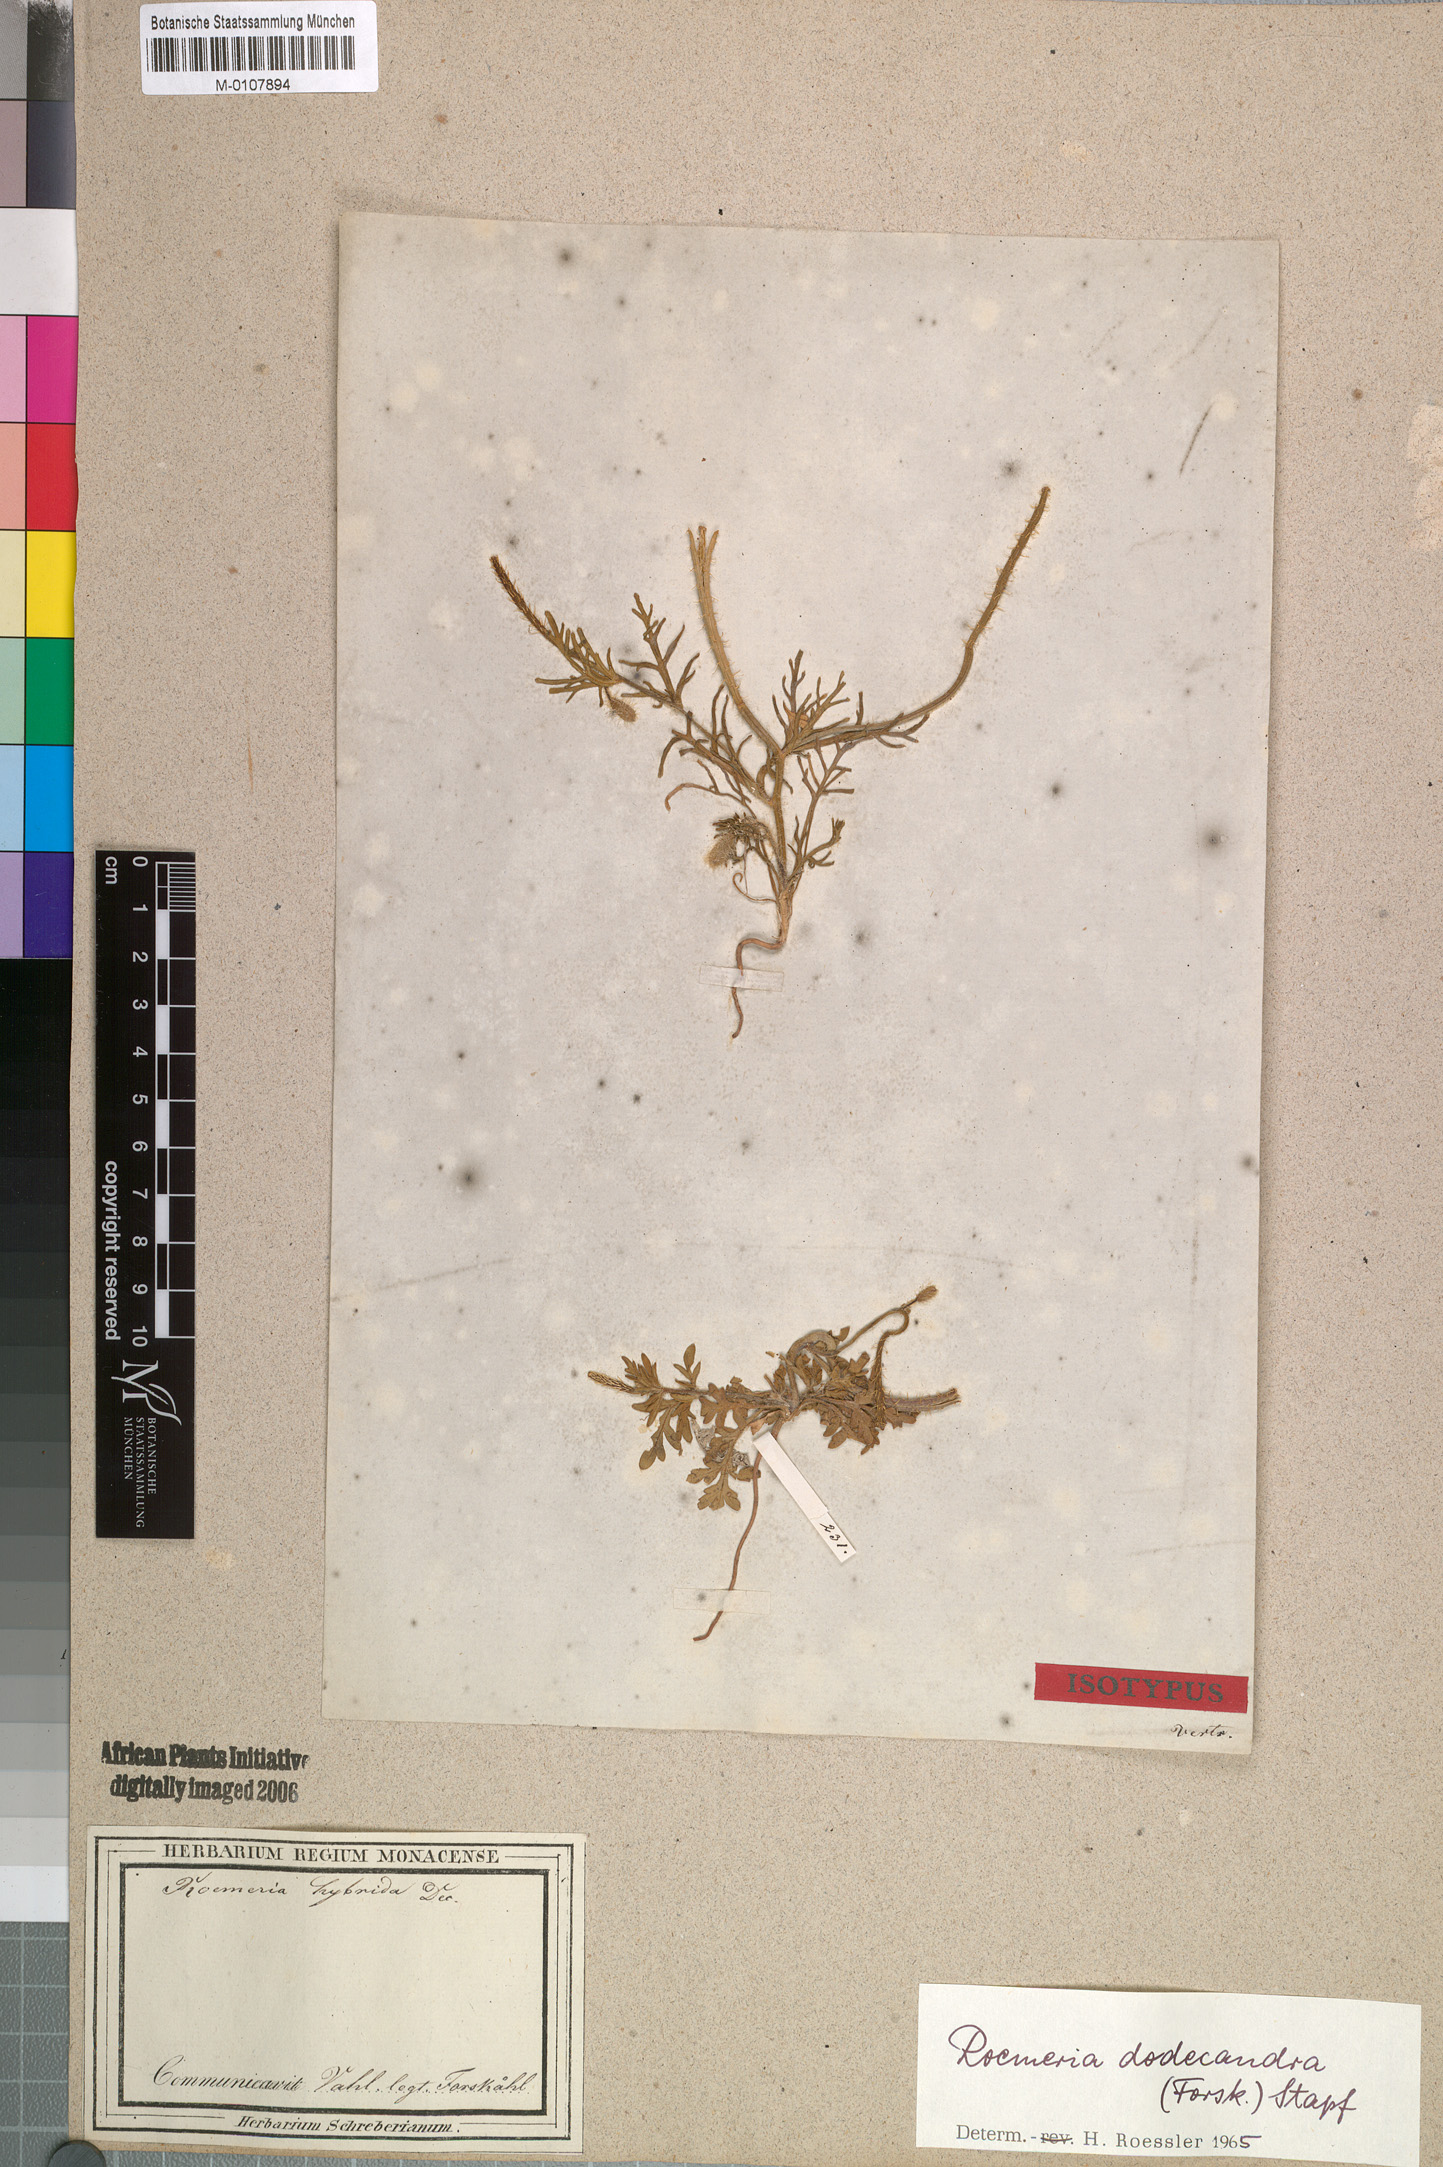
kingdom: Plantae
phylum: Tracheophyta
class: Magnoliopsida
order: Ranunculales
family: Papaveraceae
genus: Roemeria
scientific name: Roemeria hybrida
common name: Violet horned-poppy
